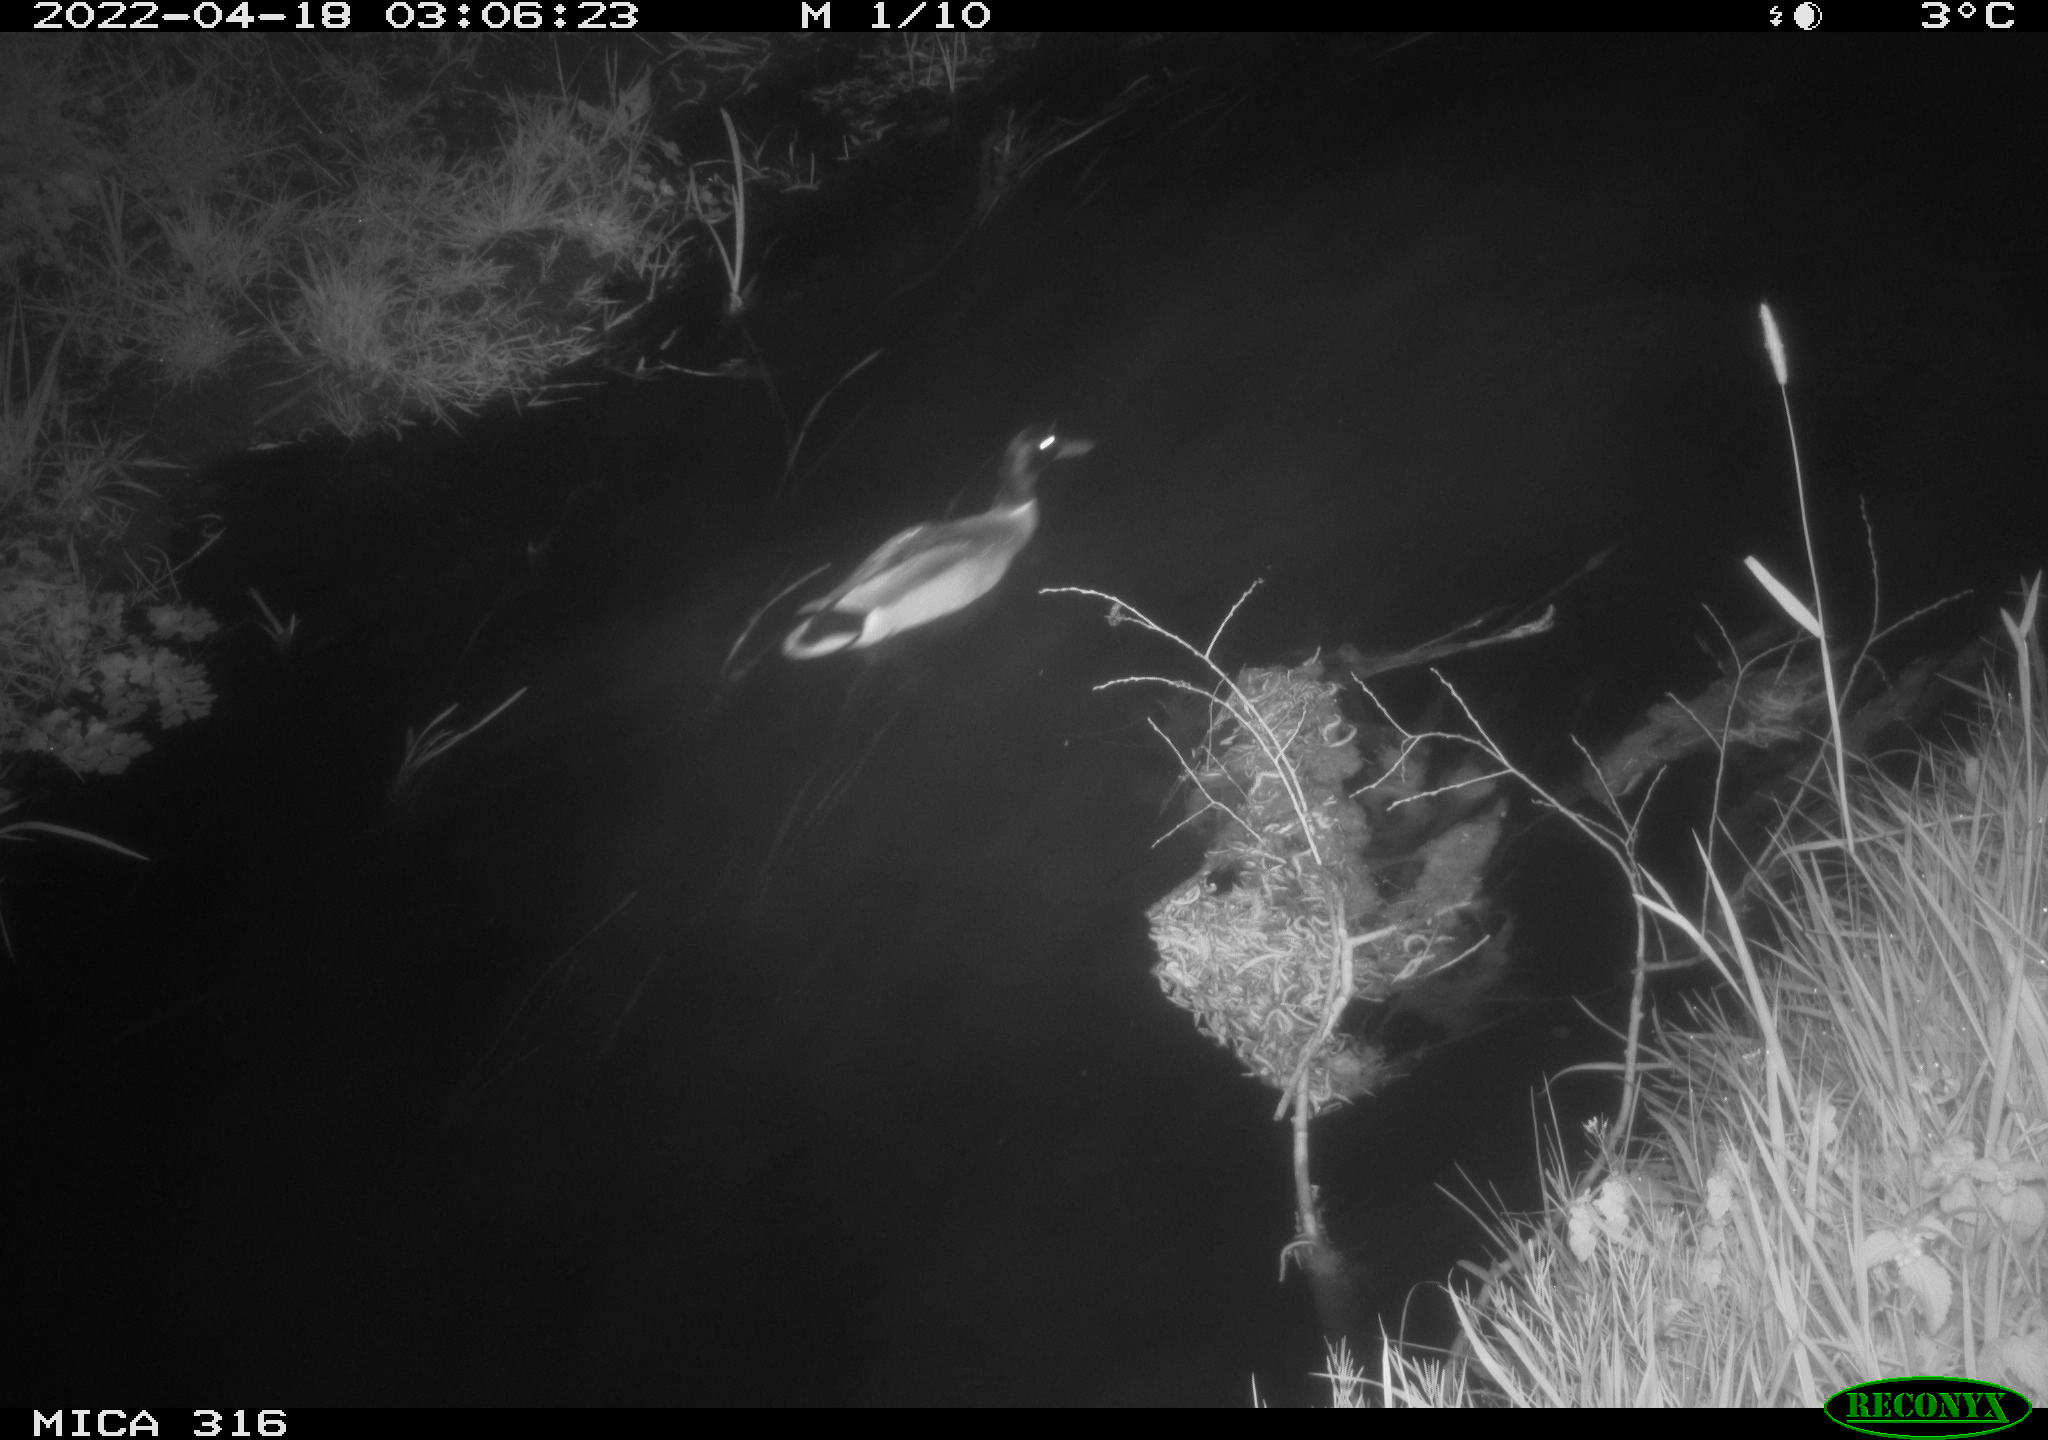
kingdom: Animalia
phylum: Chordata
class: Aves
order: Pelecaniformes
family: Ardeidae
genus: Ardea
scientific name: Ardea
